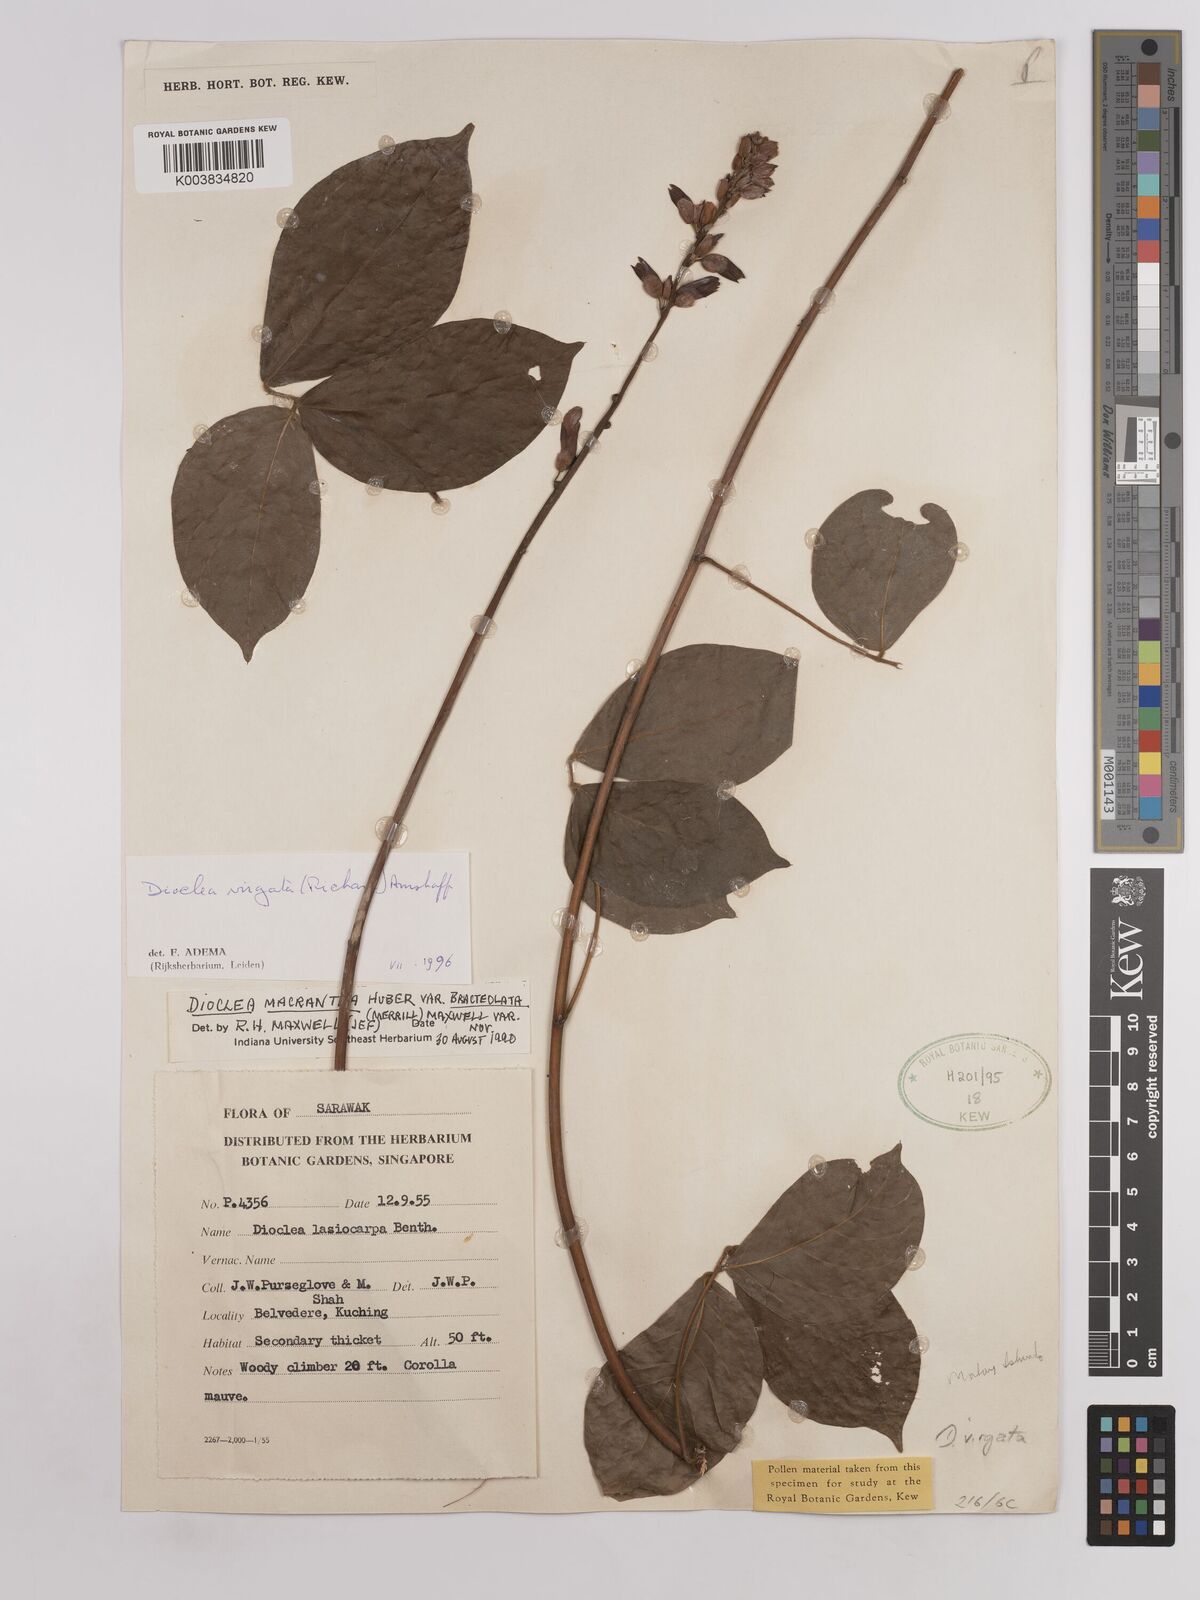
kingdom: Plantae
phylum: Tracheophyta
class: Magnoliopsida
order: Fabales
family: Fabaceae
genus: Dioclea
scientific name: Dioclea virgata
